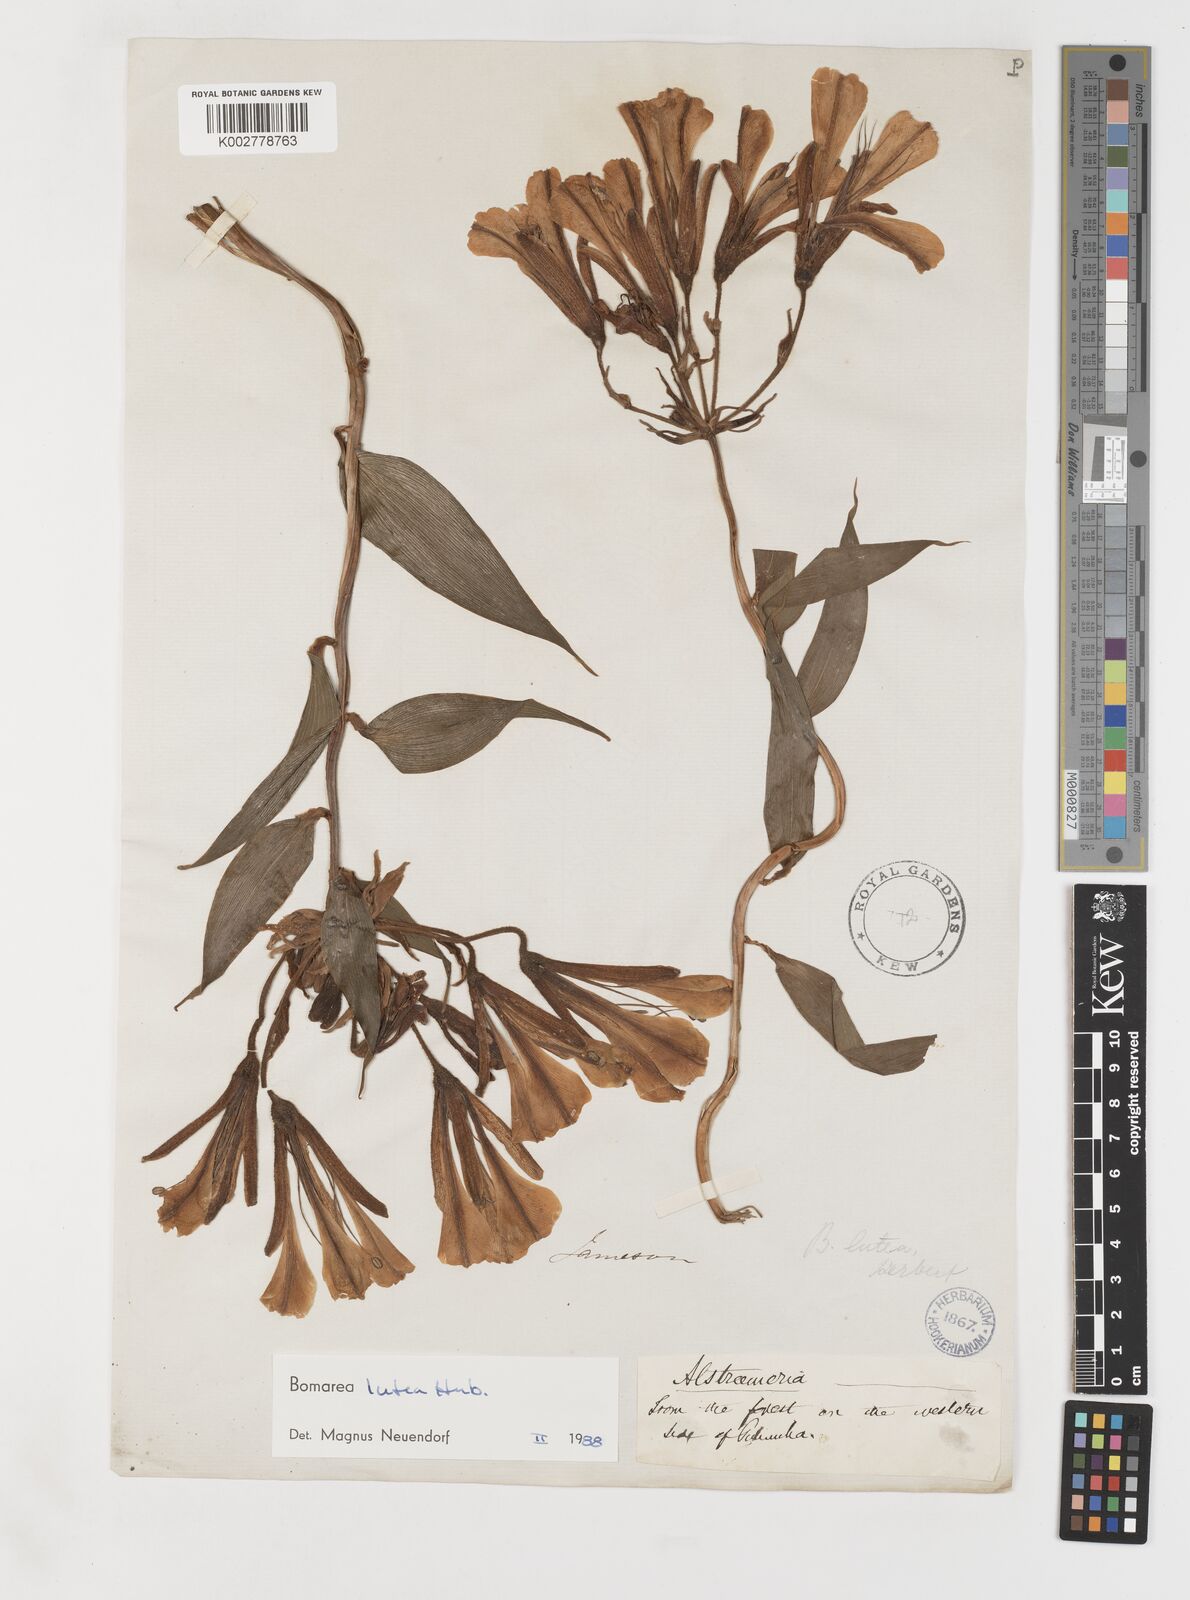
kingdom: Plantae
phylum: Tracheophyta
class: Liliopsida
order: Liliales
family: Alstroemeriaceae
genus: Bomarea
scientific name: Bomarea lutea
